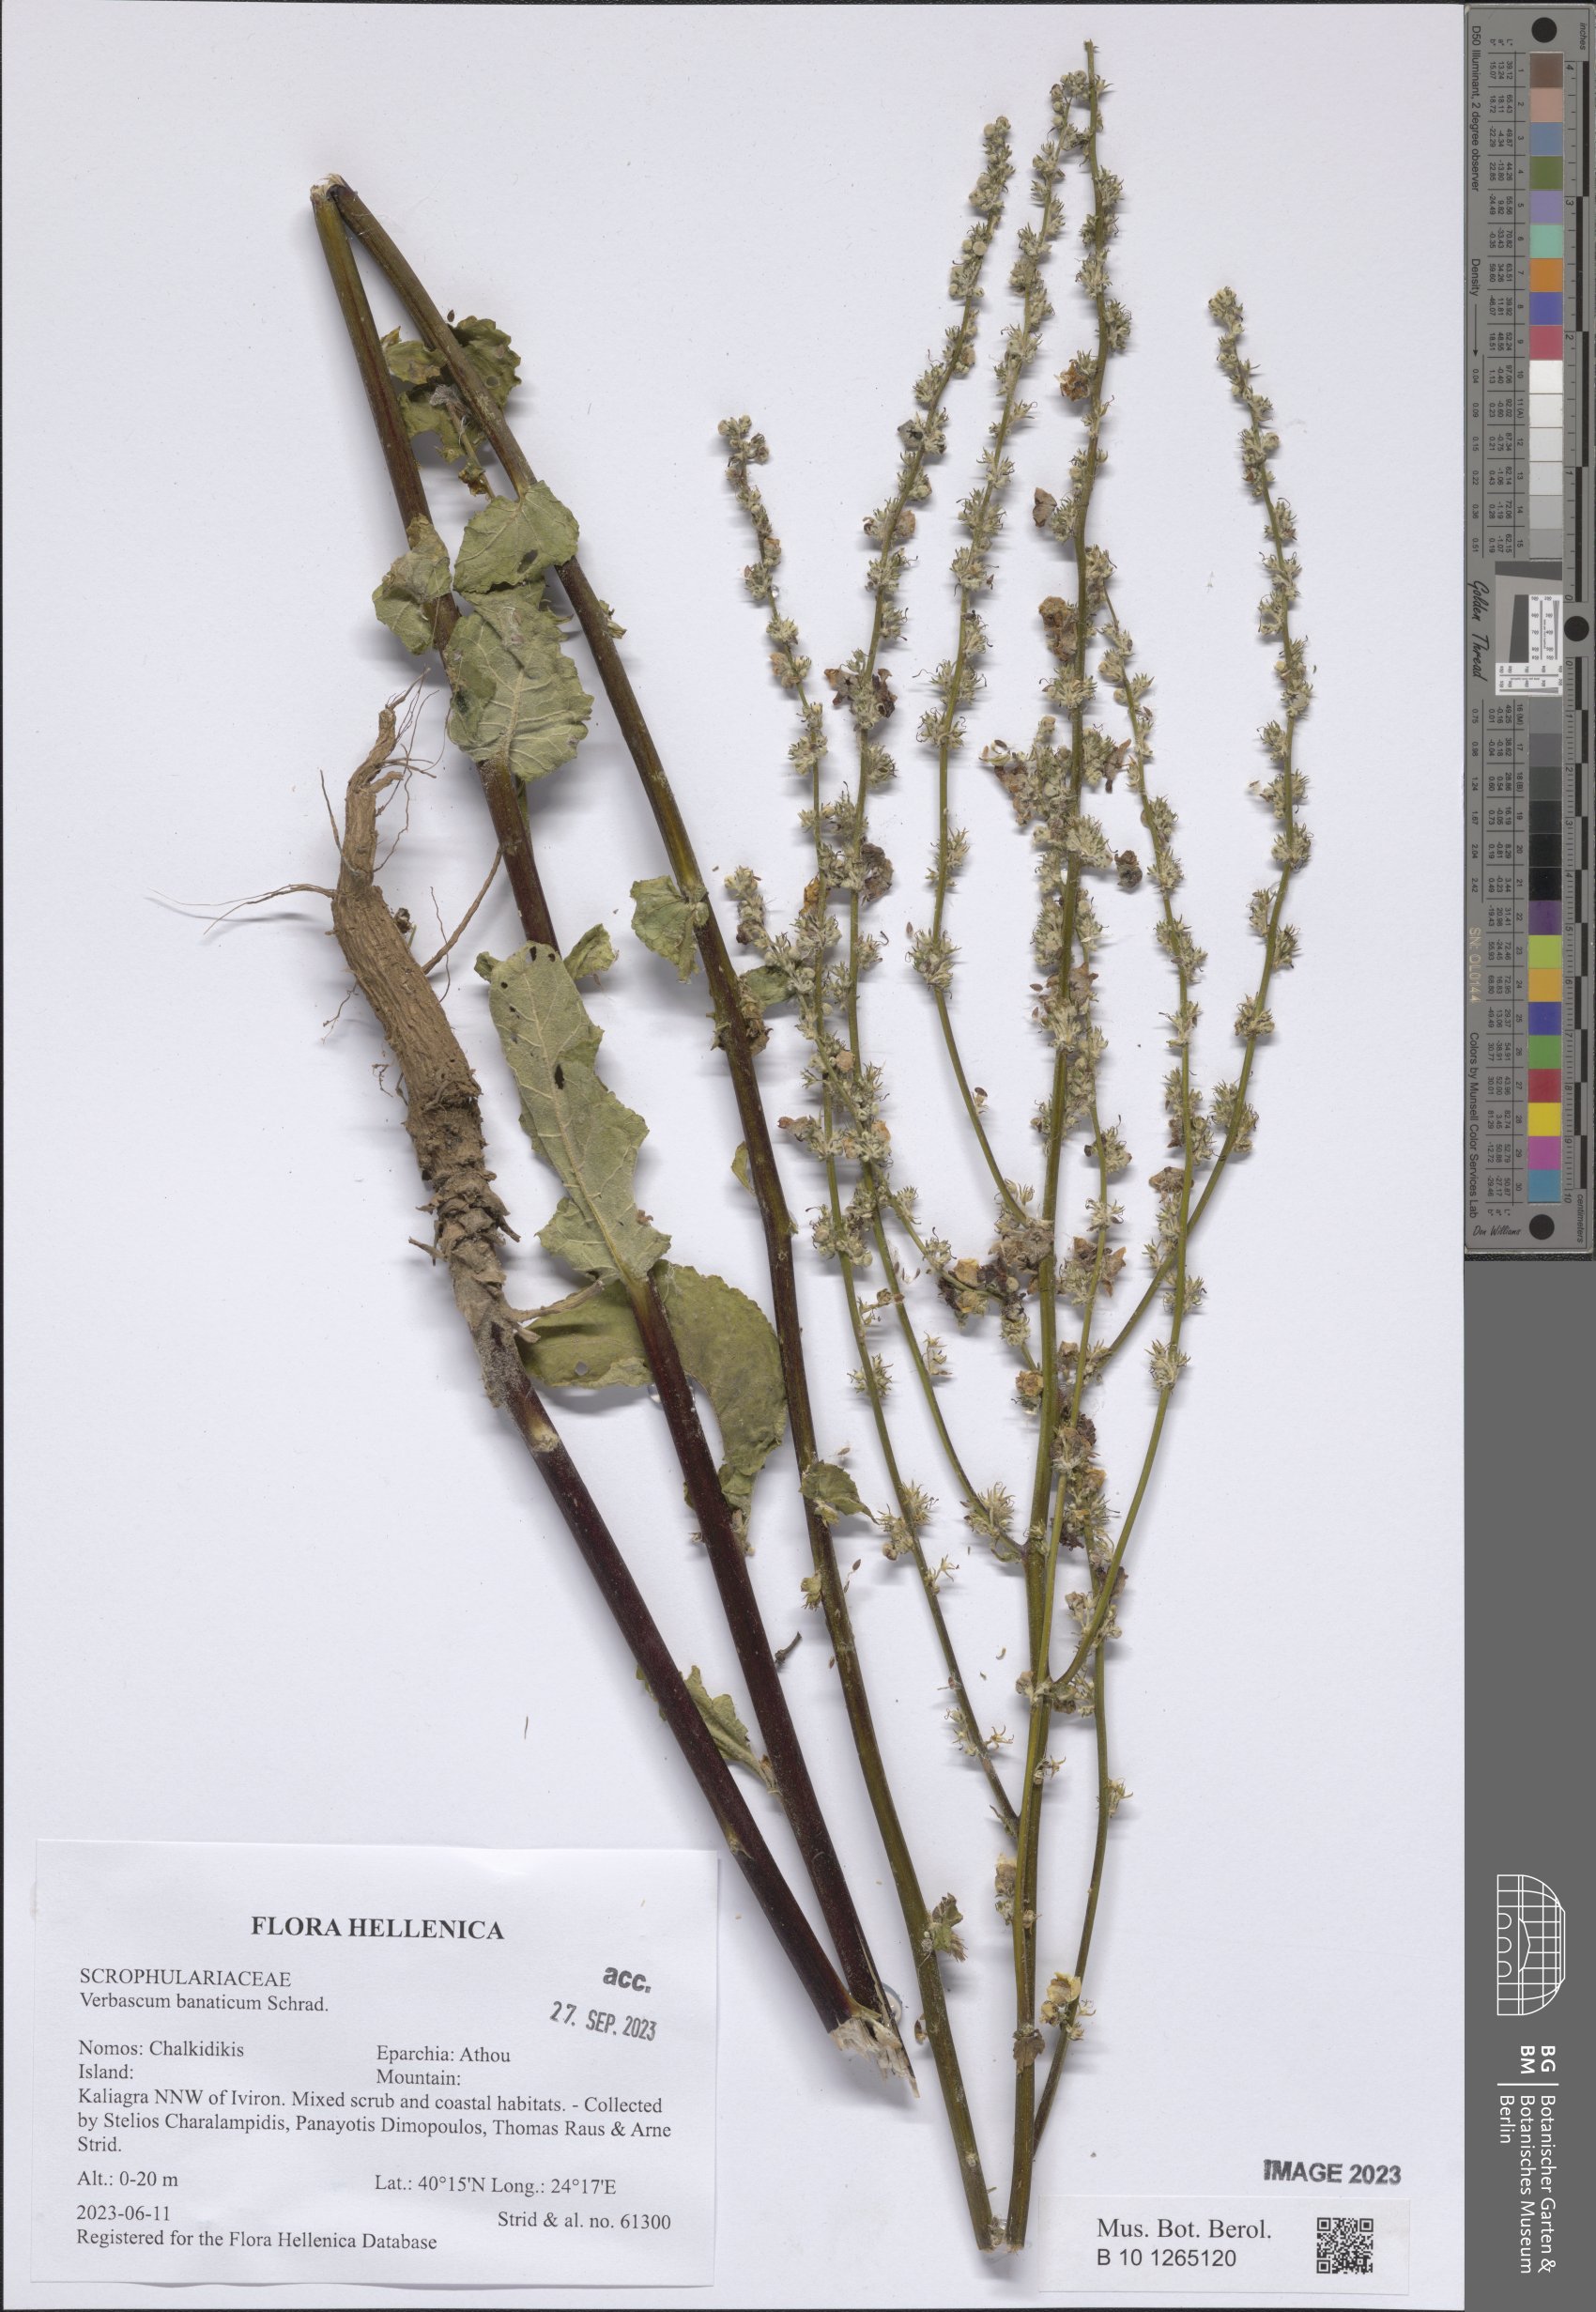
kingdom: Plantae
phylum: Tracheophyta
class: Magnoliopsida
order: Lamiales
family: Scrophulariaceae
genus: Verbascum
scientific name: Verbascum banaticum
